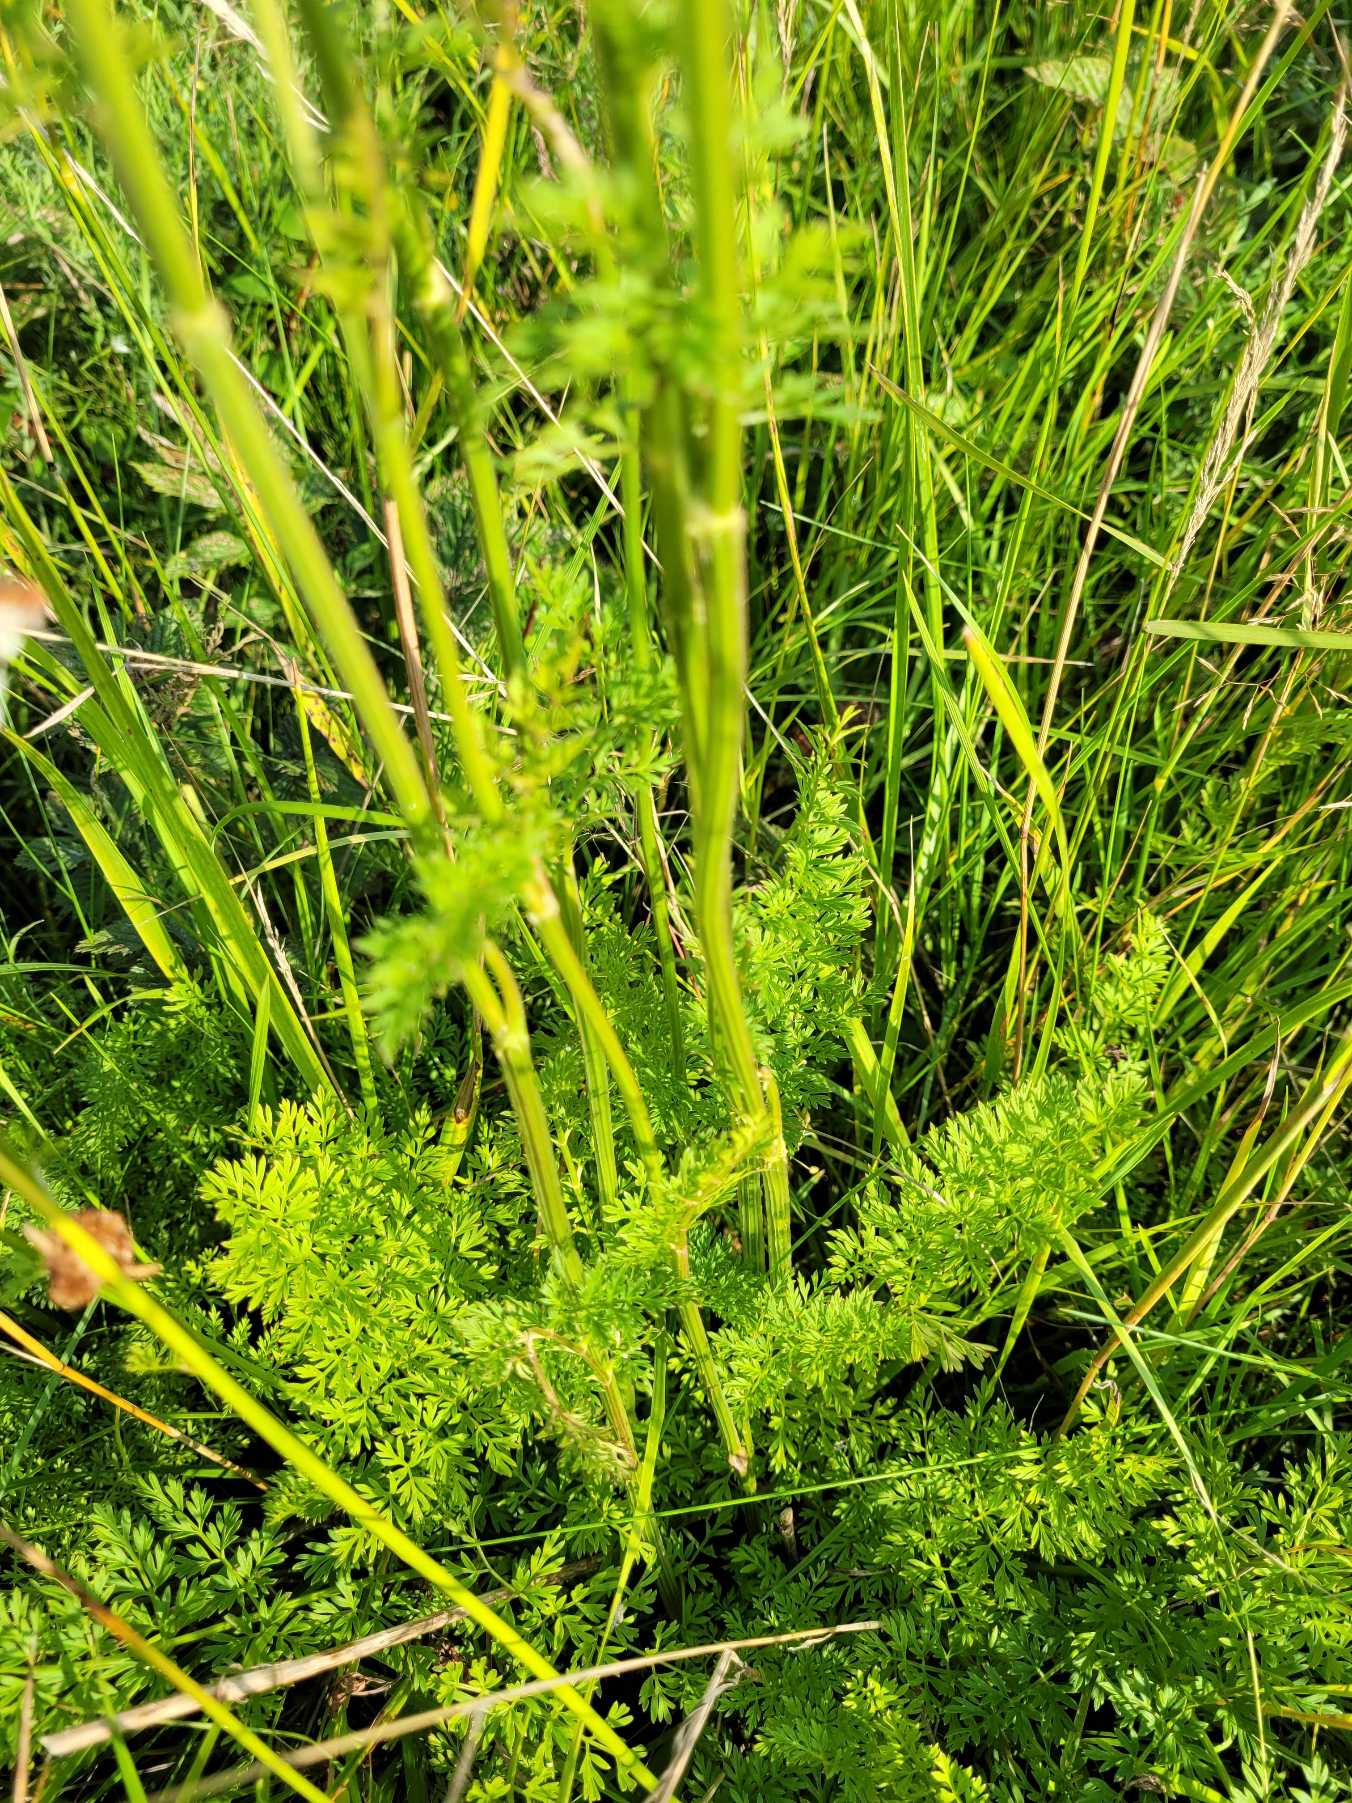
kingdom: Plantae
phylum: Tracheophyta
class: Magnoliopsida
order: Apiales
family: Apiaceae
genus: Selinum
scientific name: Selinum carvifolia
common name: Seline
